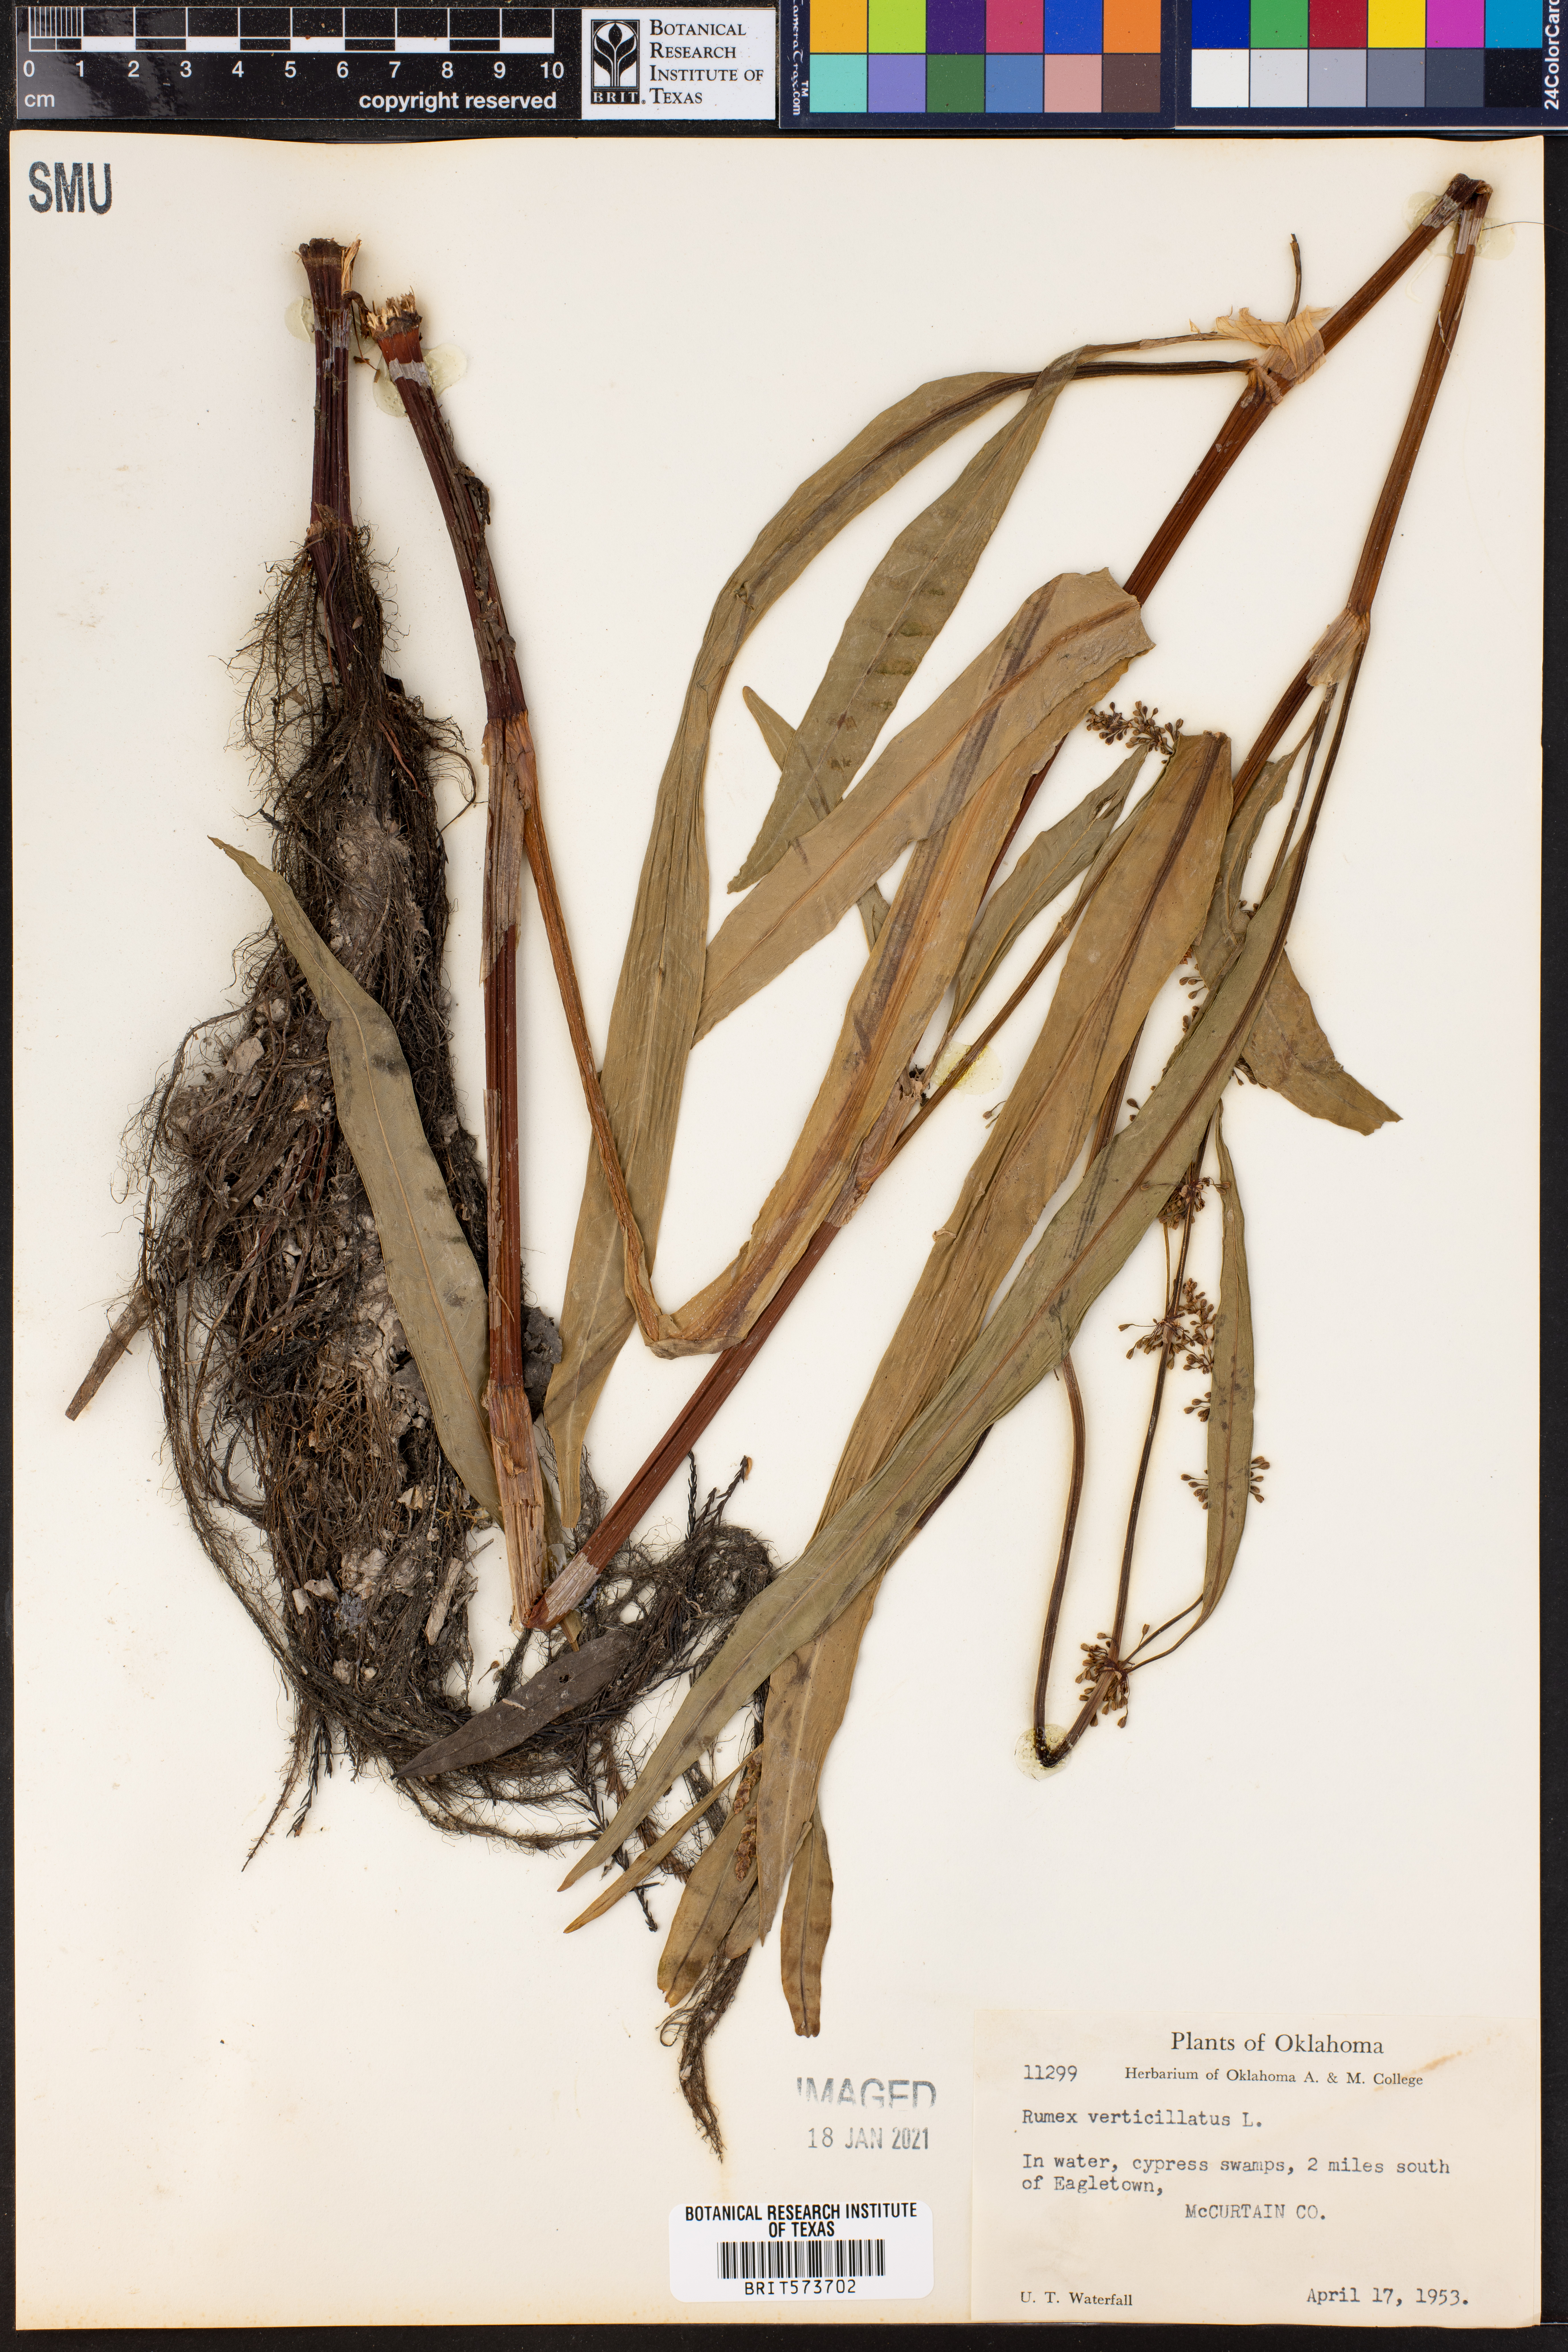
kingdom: Plantae
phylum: Tracheophyta
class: Magnoliopsida
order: Caryophyllales
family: Polygonaceae
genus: Rumex
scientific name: Rumex verticillatus
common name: Swamp dock
